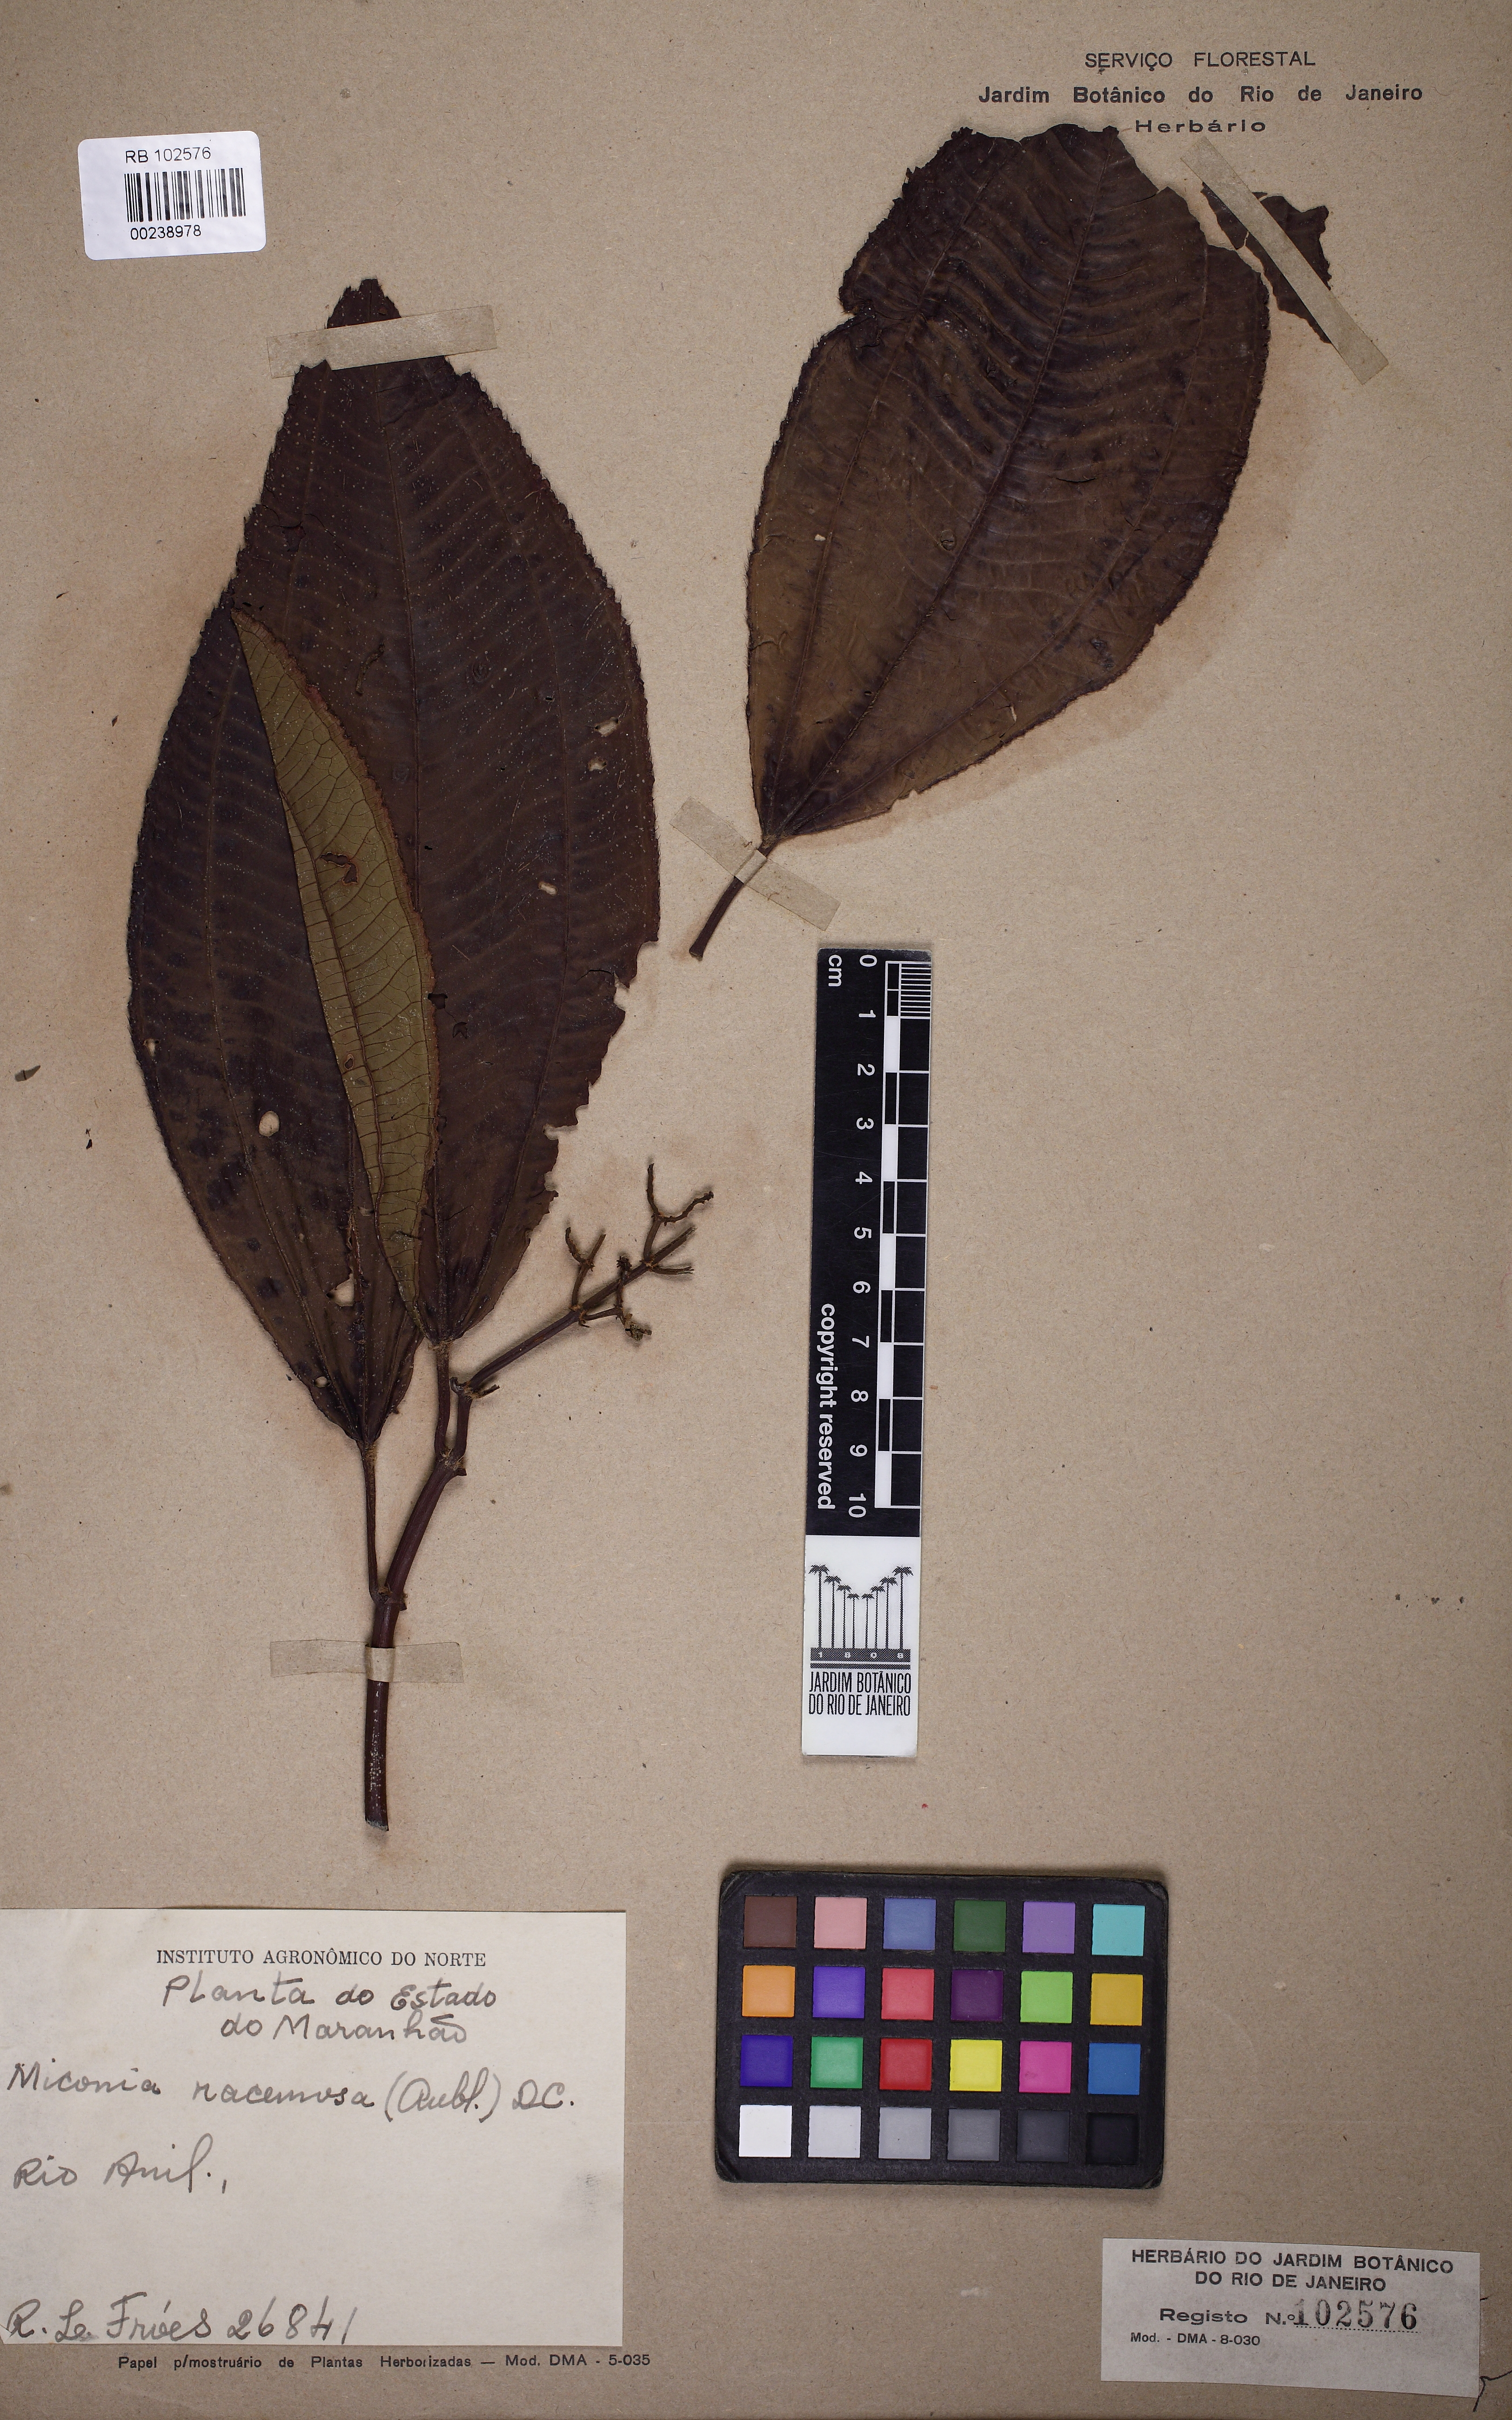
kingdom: Plantae
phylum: Tracheophyta
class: Magnoliopsida
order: Myrtales
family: Melastomataceae
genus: Miconia
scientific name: Miconia racemosa
